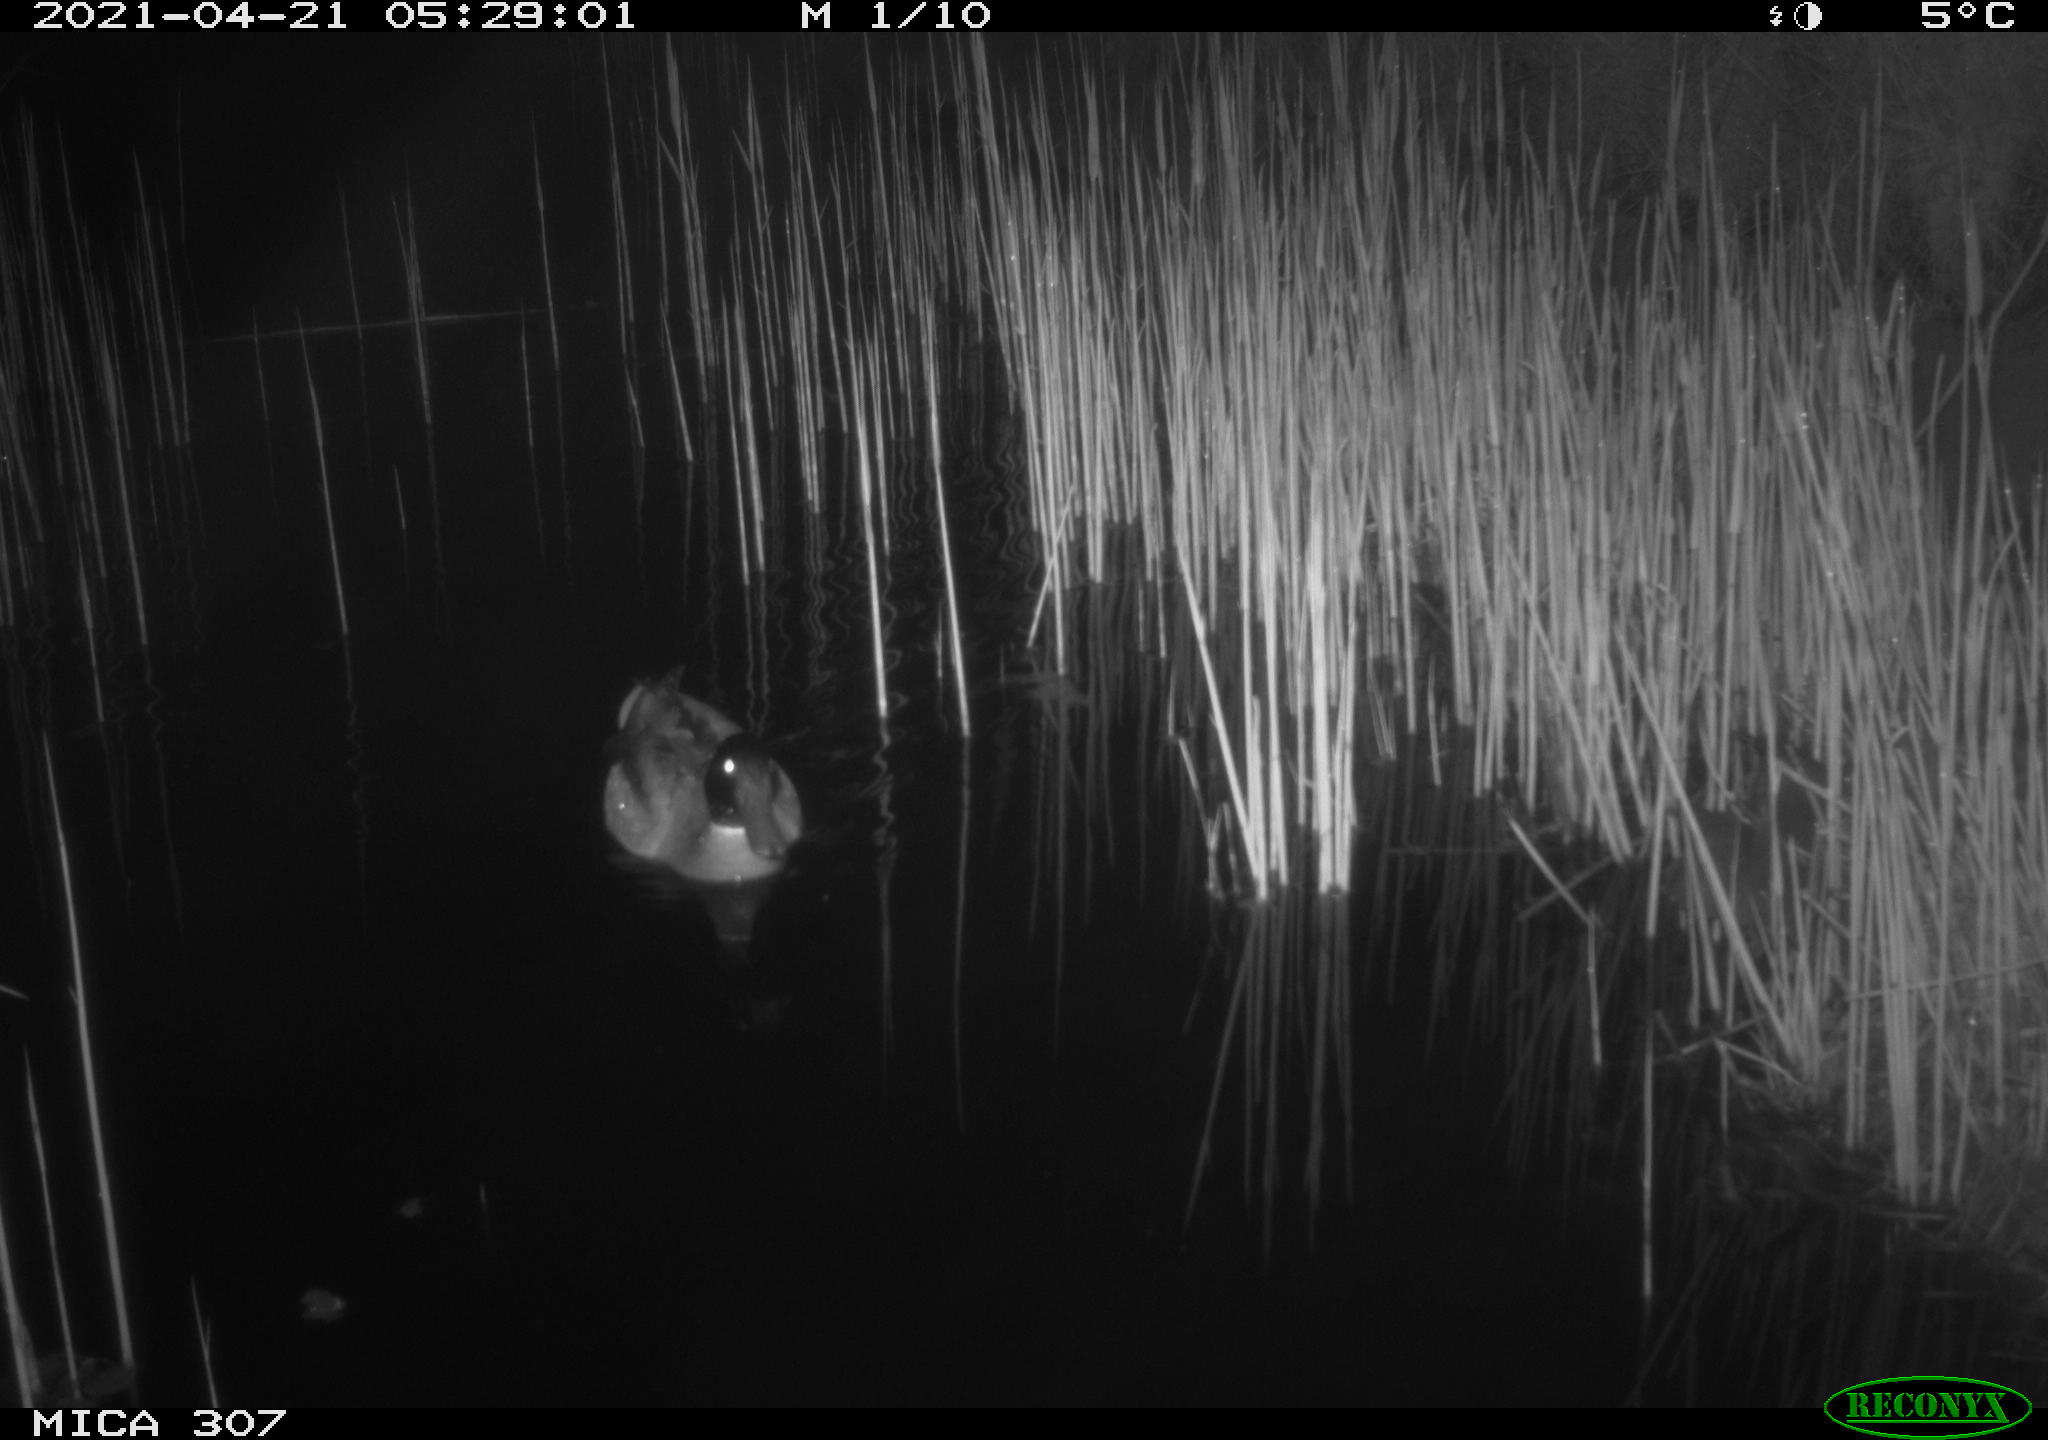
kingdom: Animalia
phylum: Chordata
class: Aves
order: Anseriformes
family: Anatidae
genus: Anas
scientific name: Anas platyrhynchos
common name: Mallard
